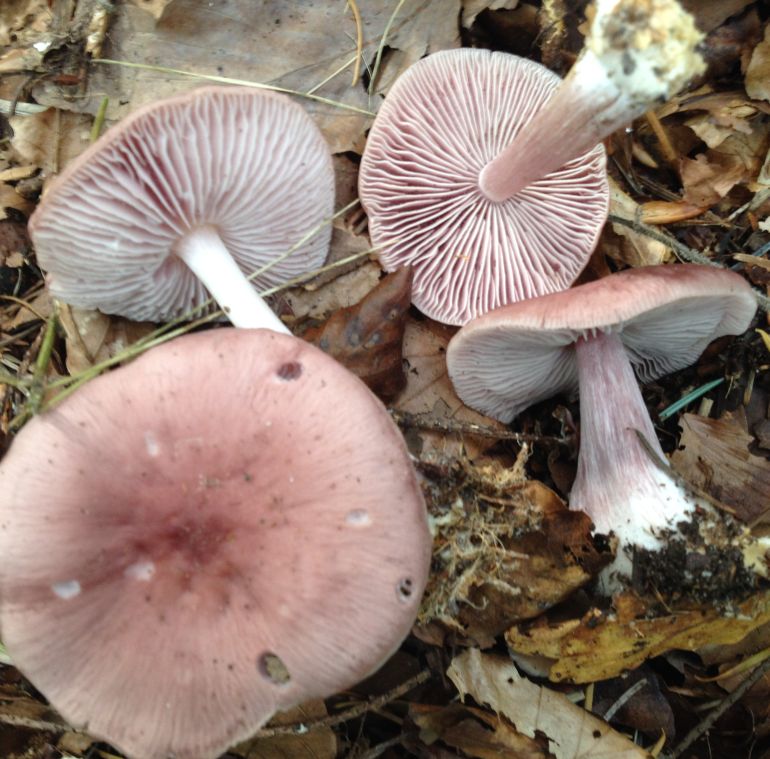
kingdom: Fungi
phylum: Basidiomycota
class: Agaricomycetes
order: Agaricales
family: Mycenaceae
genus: Mycena
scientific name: Mycena rosea
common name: rosa huesvamp
